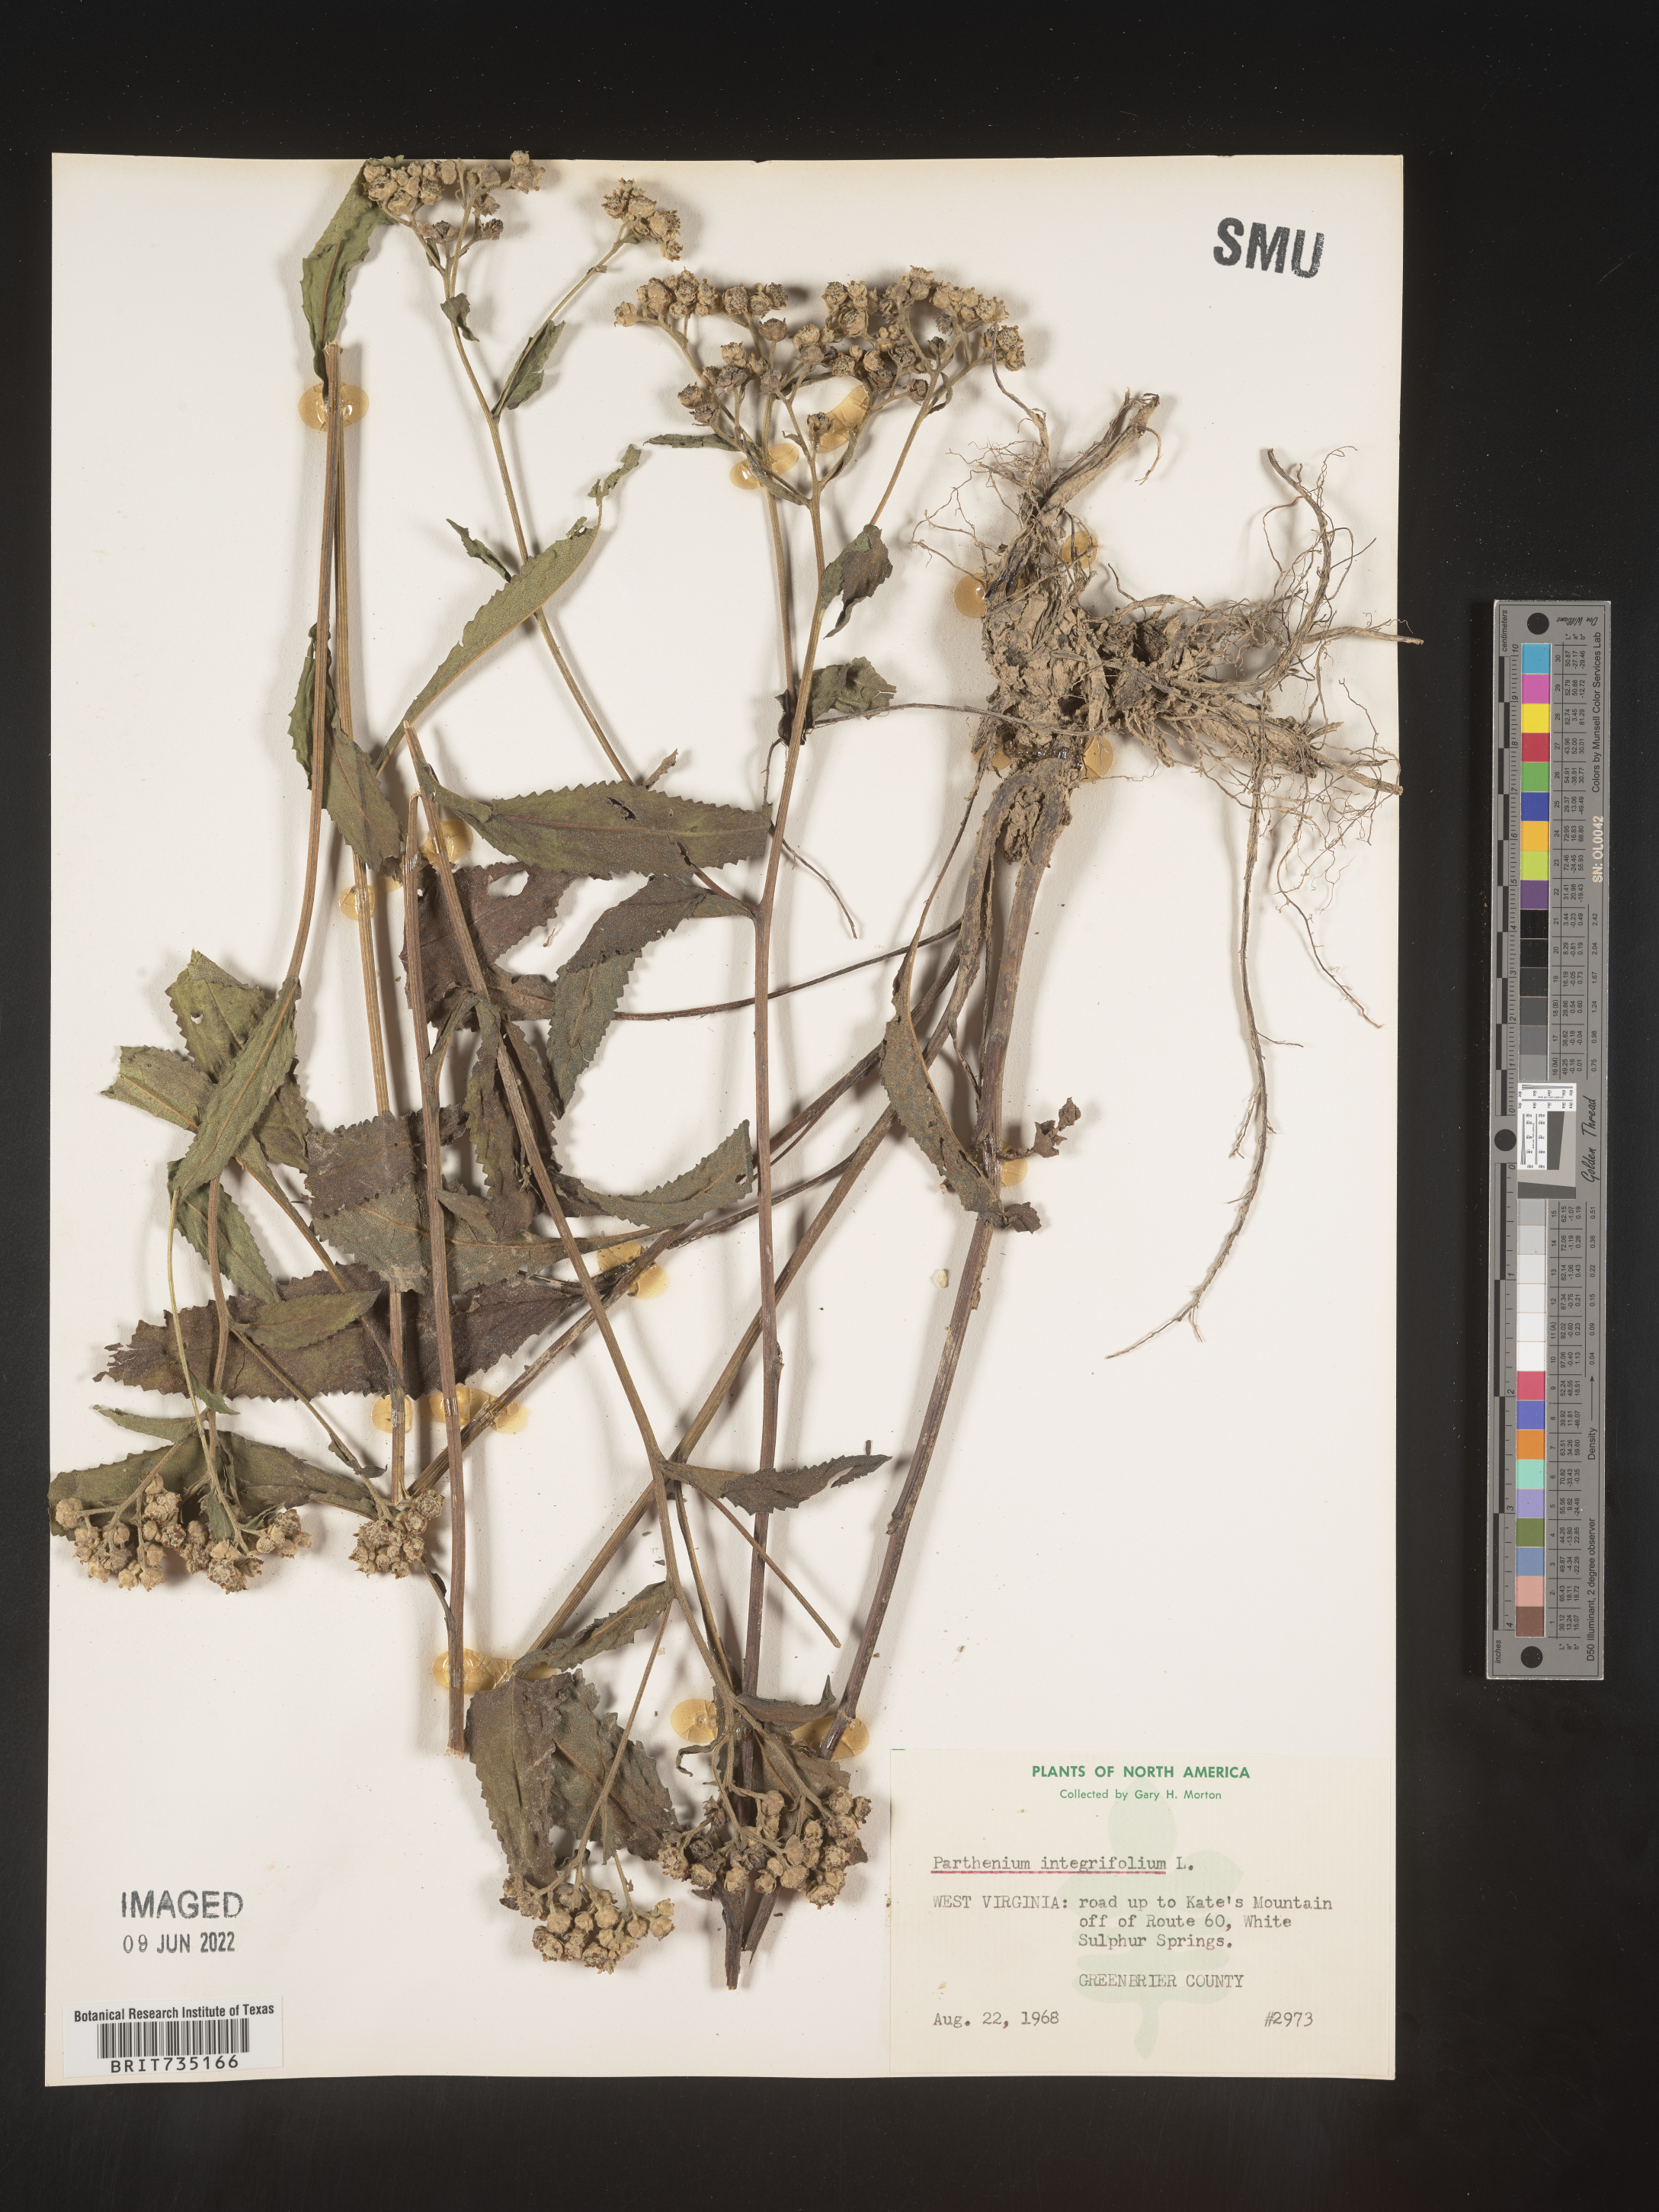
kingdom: Plantae
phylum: Tracheophyta
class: Magnoliopsida
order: Asterales
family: Asteraceae
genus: Parthenium
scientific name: Parthenium integrifolium
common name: American feverfew
